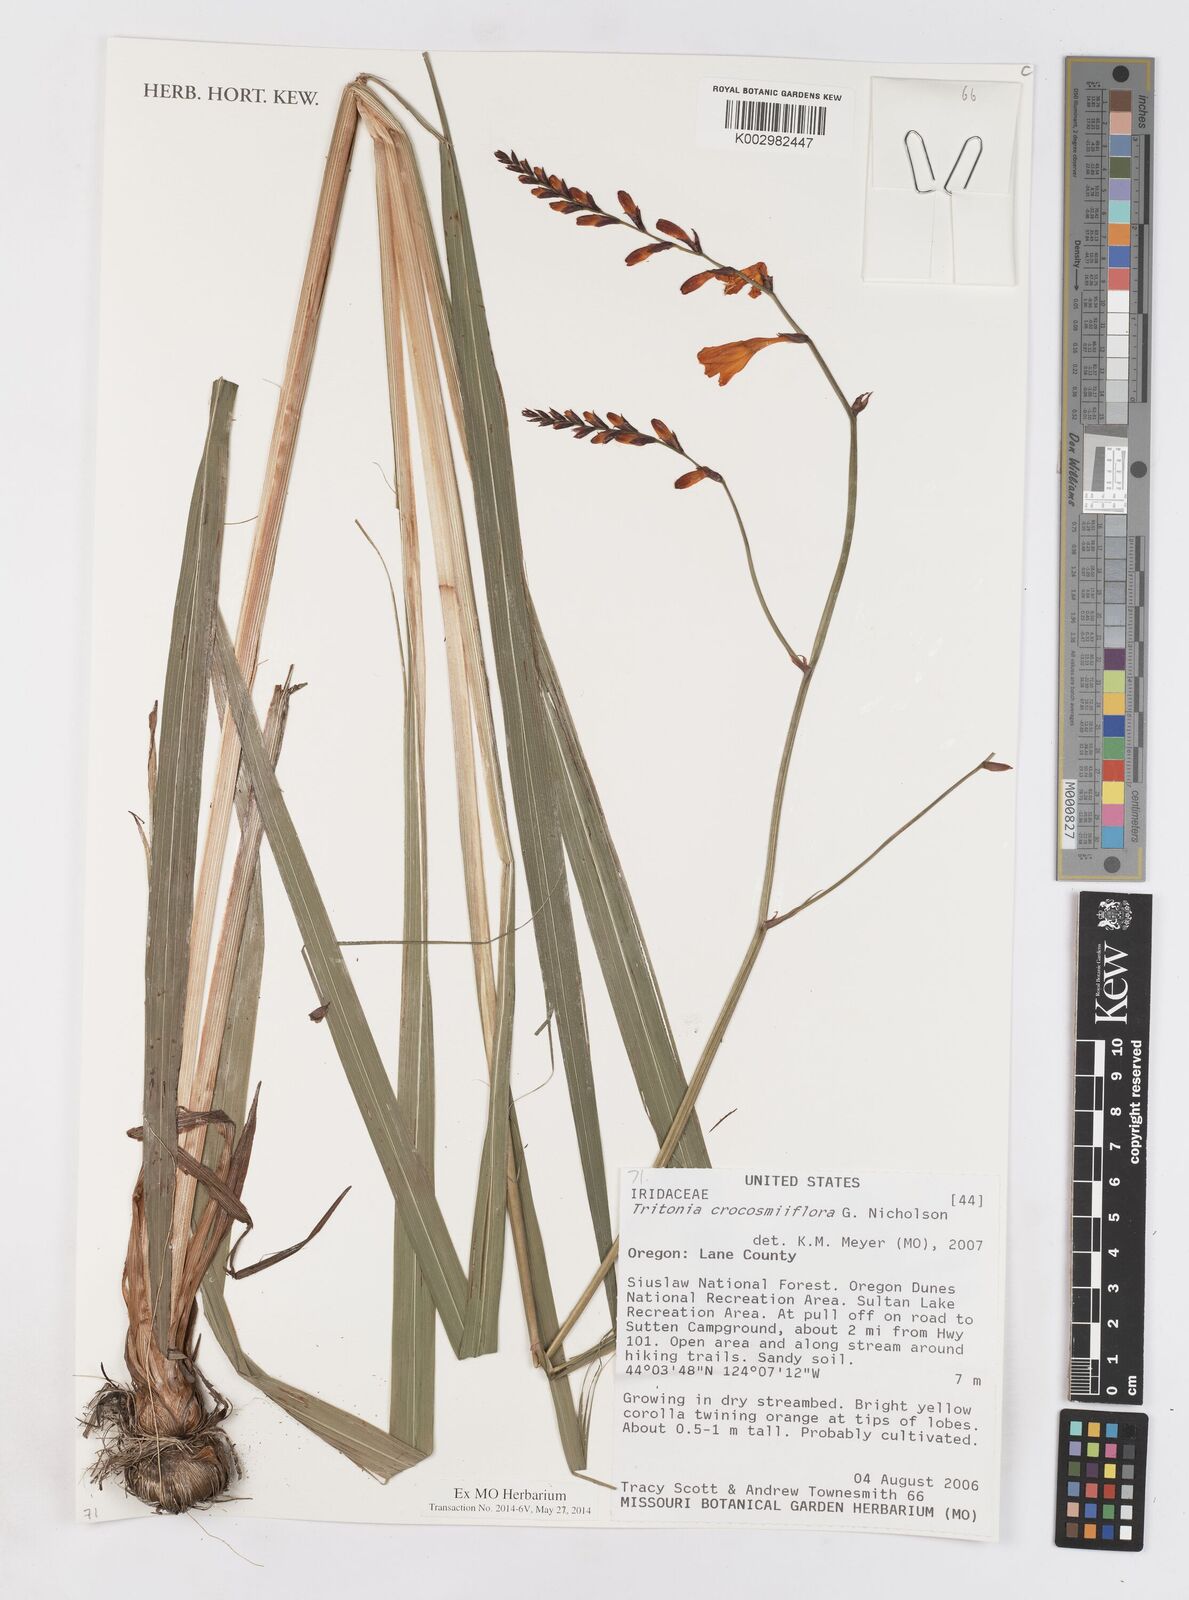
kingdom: Plantae
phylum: Tracheophyta
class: Liliopsida
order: Asparagales
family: Iridaceae
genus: Crocosmia
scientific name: Crocosmia crocosmiiflora
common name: Montbretia
